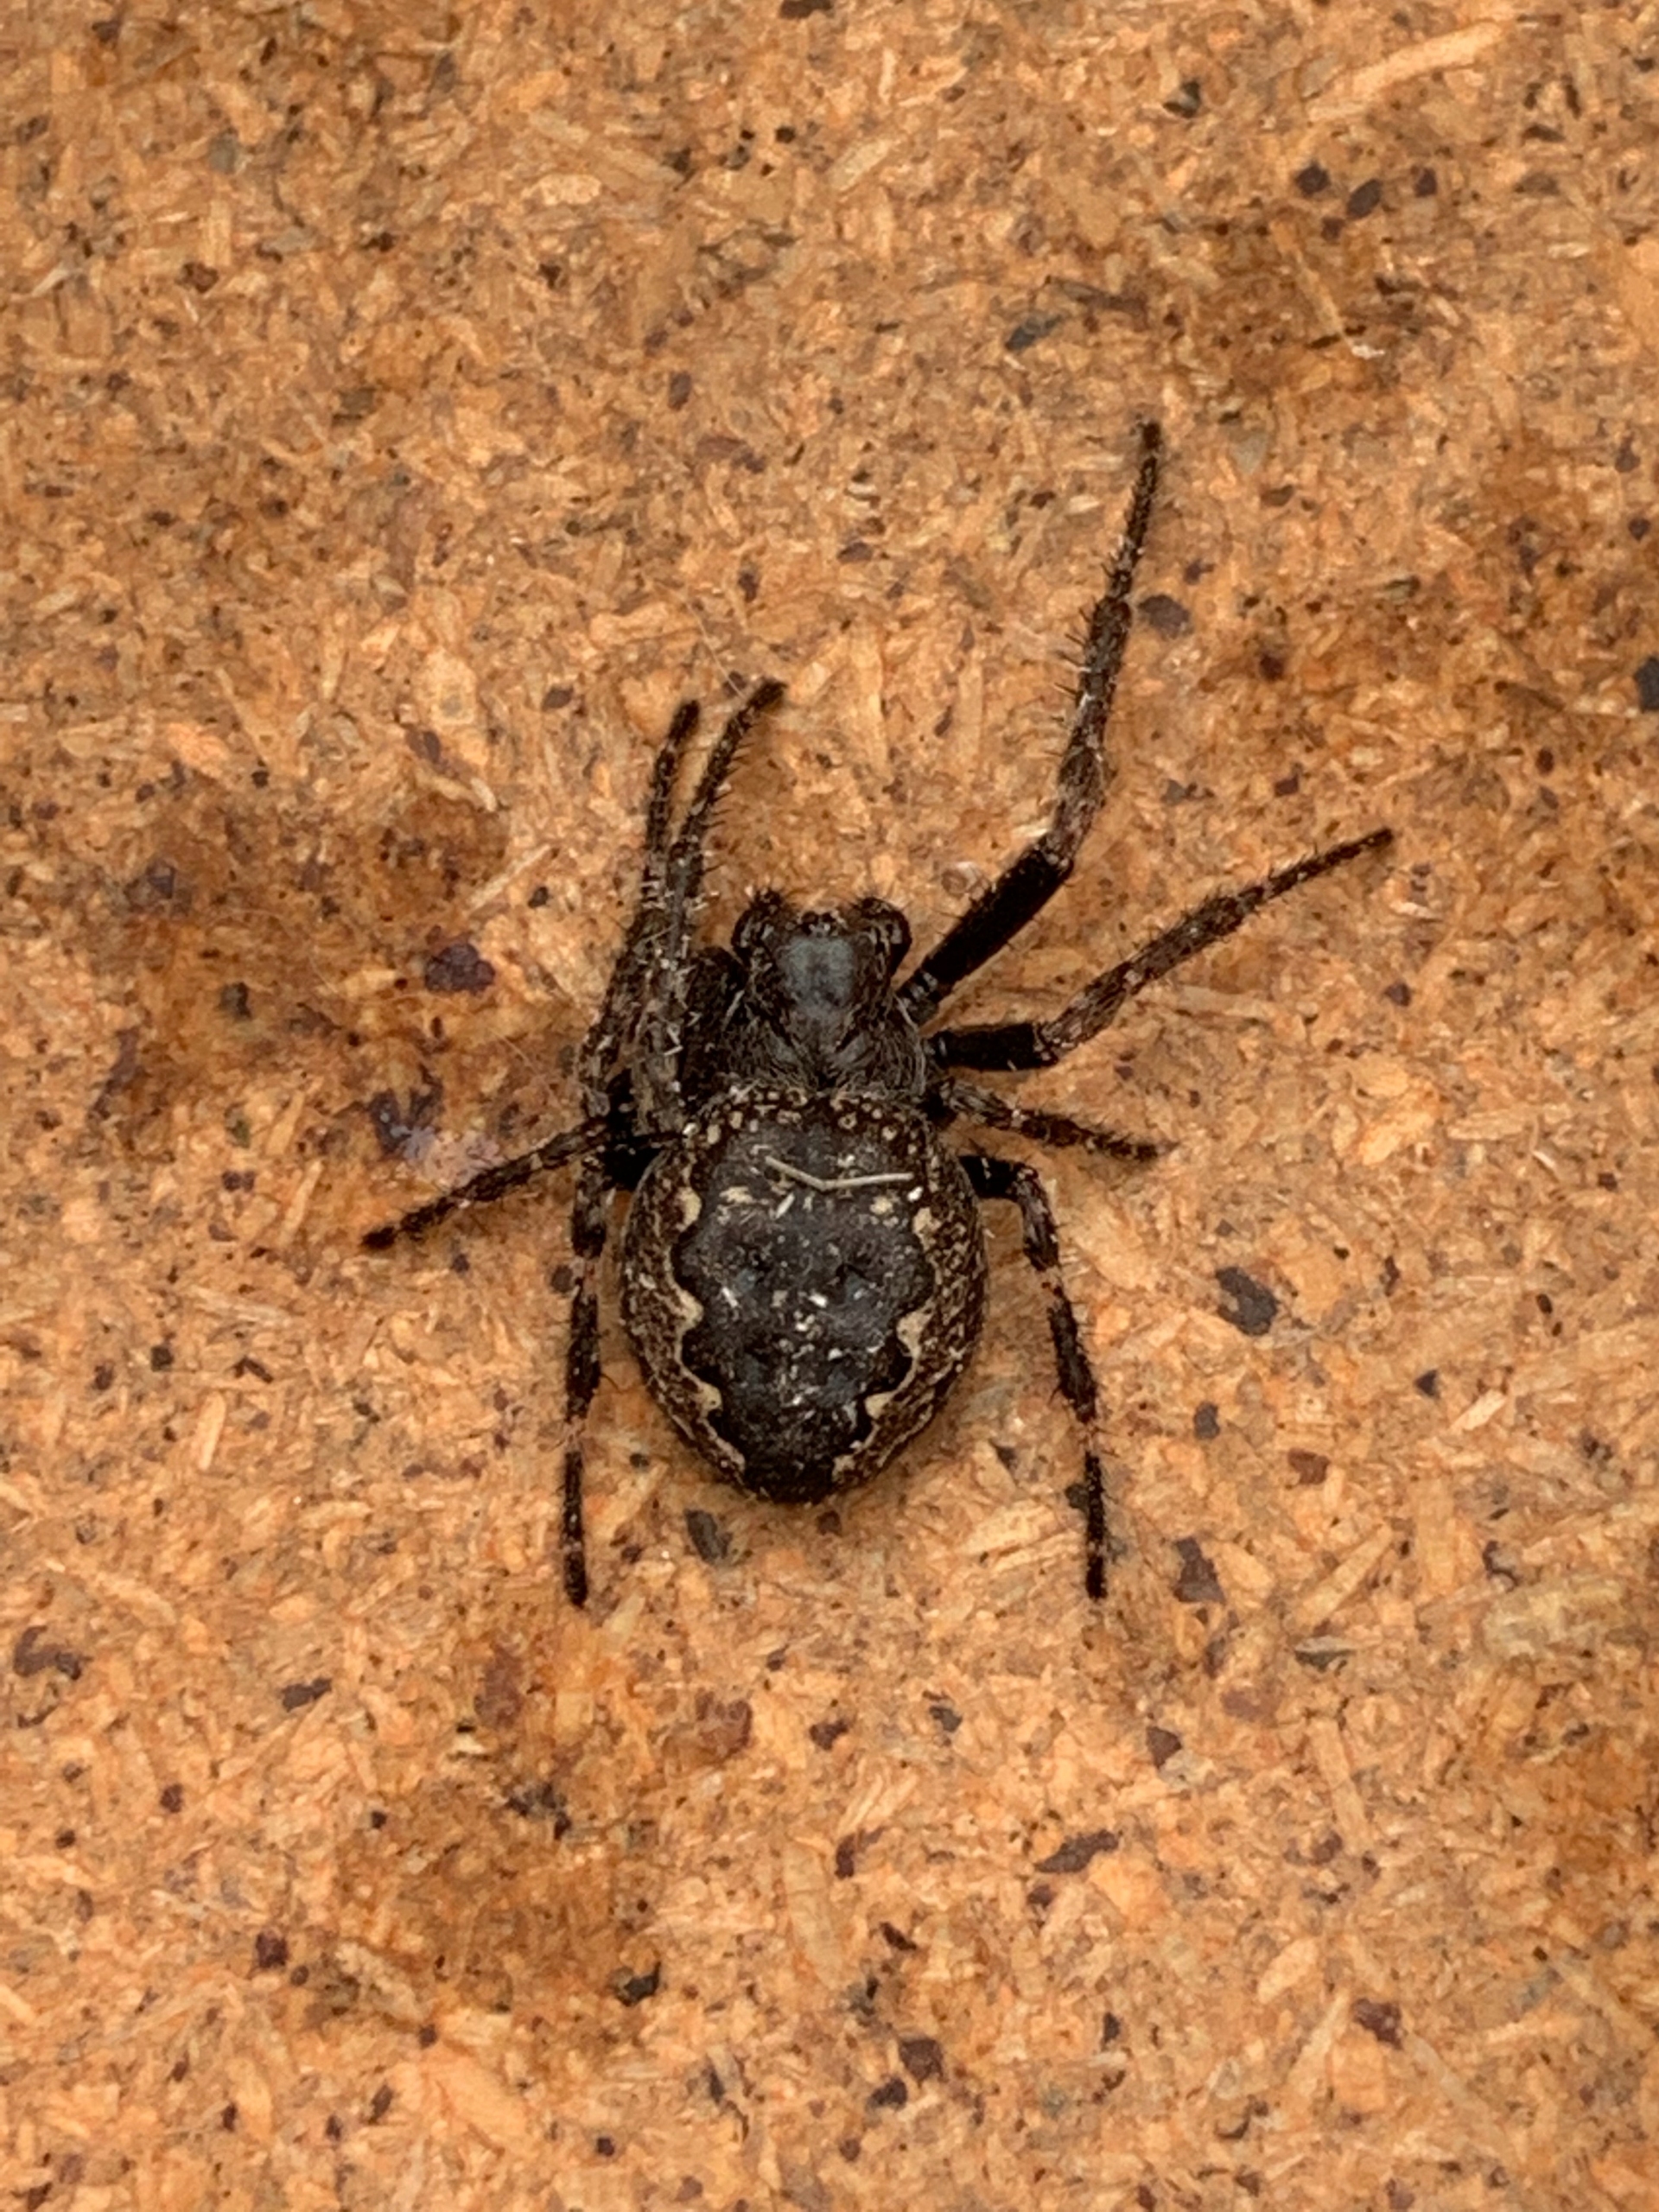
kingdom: Animalia
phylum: Arthropoda
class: Arachnida
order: Araneae
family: Araneidae
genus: Nuctenea
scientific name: Nuctenea umbratica
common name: Flad hjulspinder
